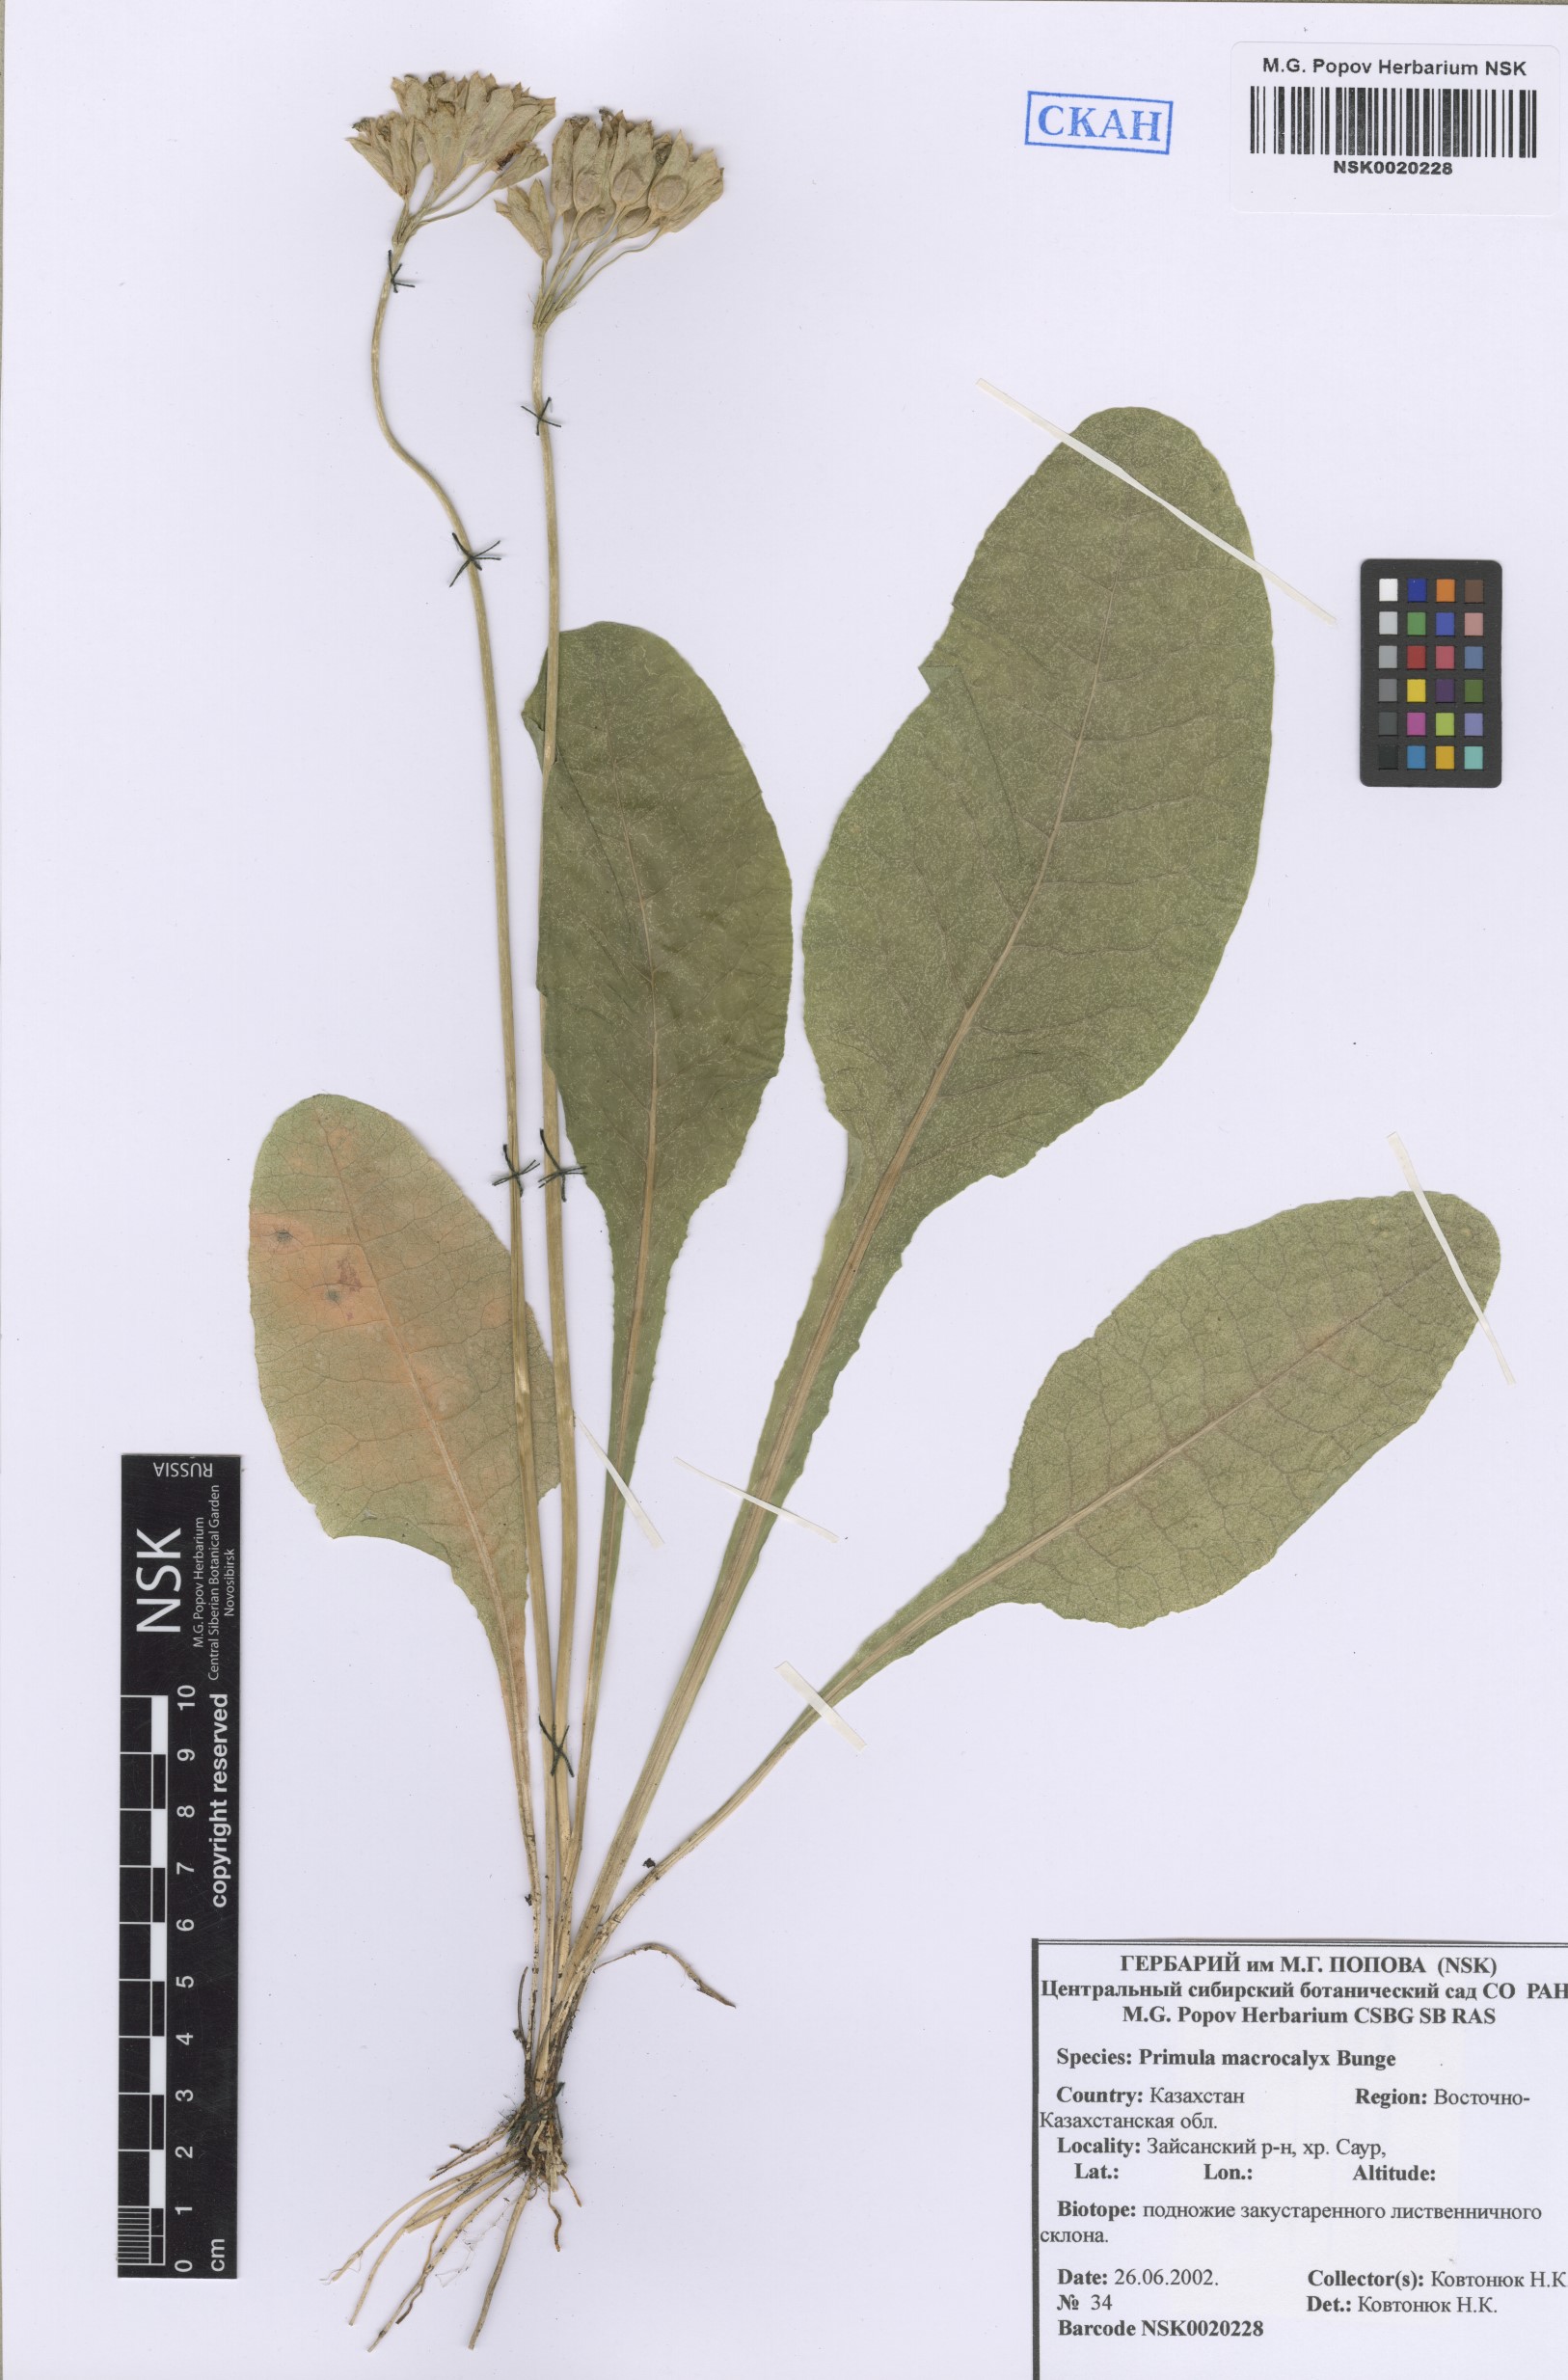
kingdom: Plantae
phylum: Tracheophyta
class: Magnoliopsida
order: Ericales
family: Primulaceae
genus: Primula
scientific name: Primula veris
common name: Cowslip
